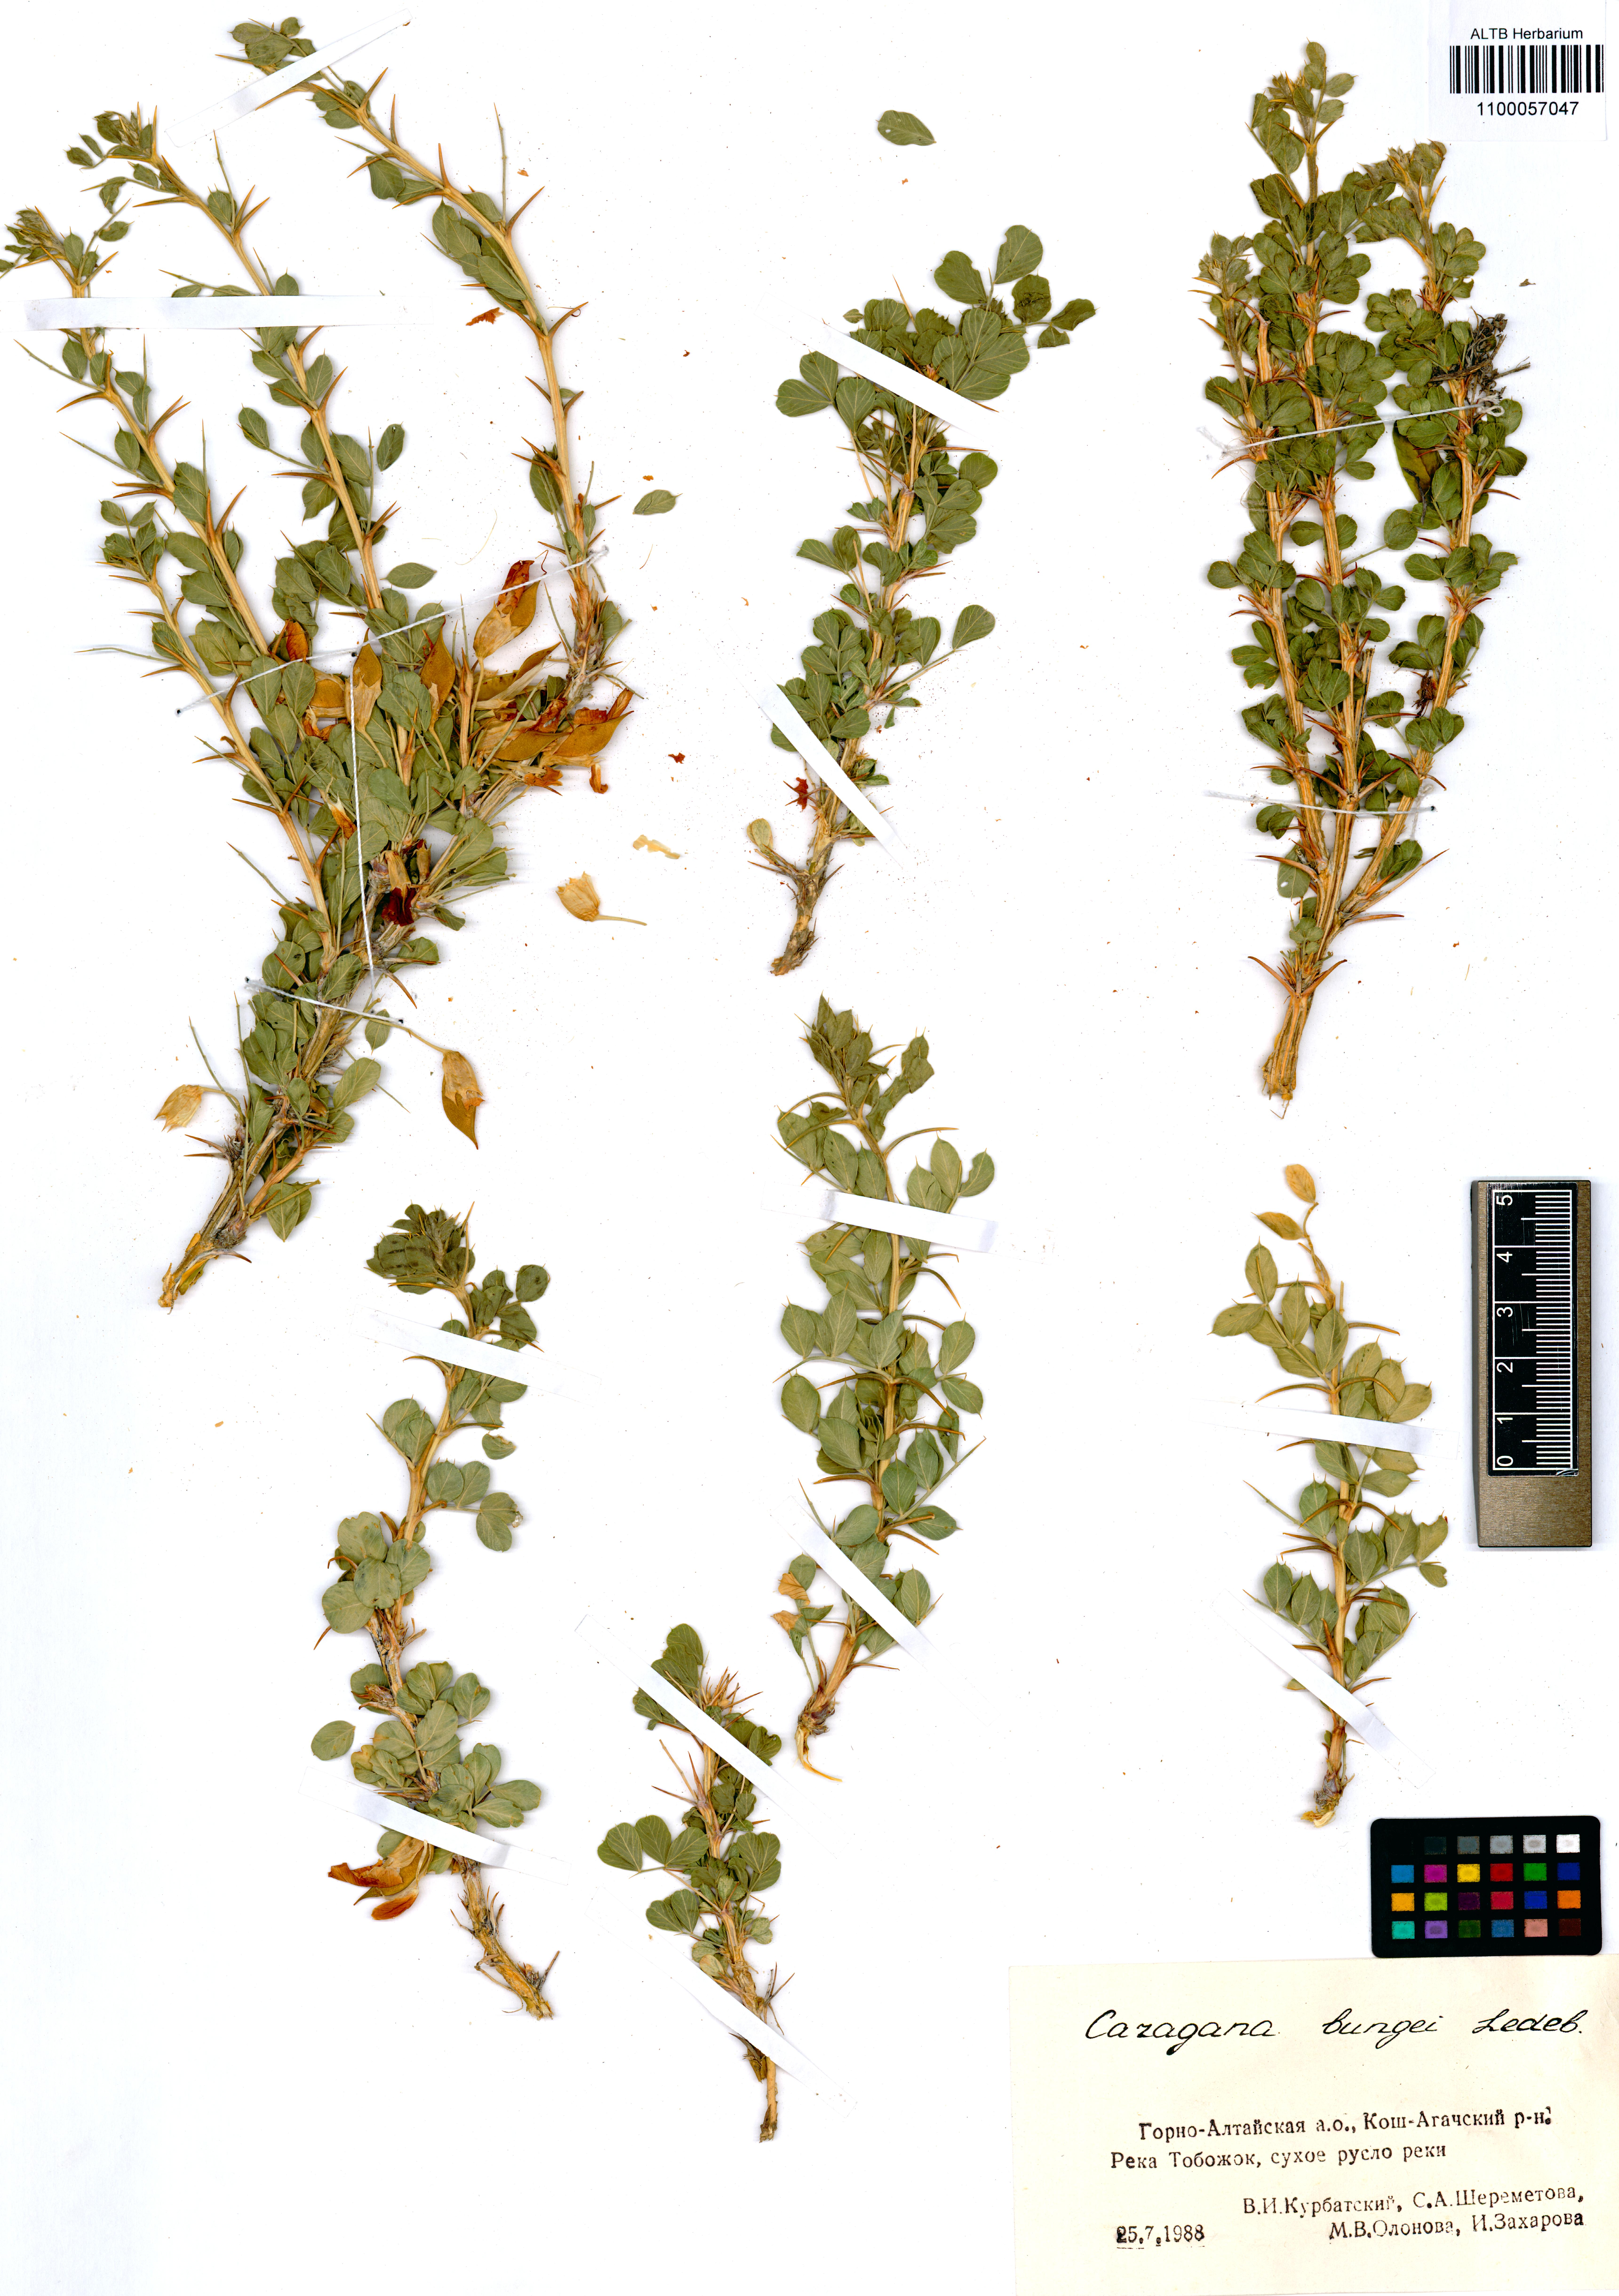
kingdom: Plantae
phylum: Tracheophyta
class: Magnoliopsida
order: Fabales
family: Fabaceae
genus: Caragana
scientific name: Caragana bungei
